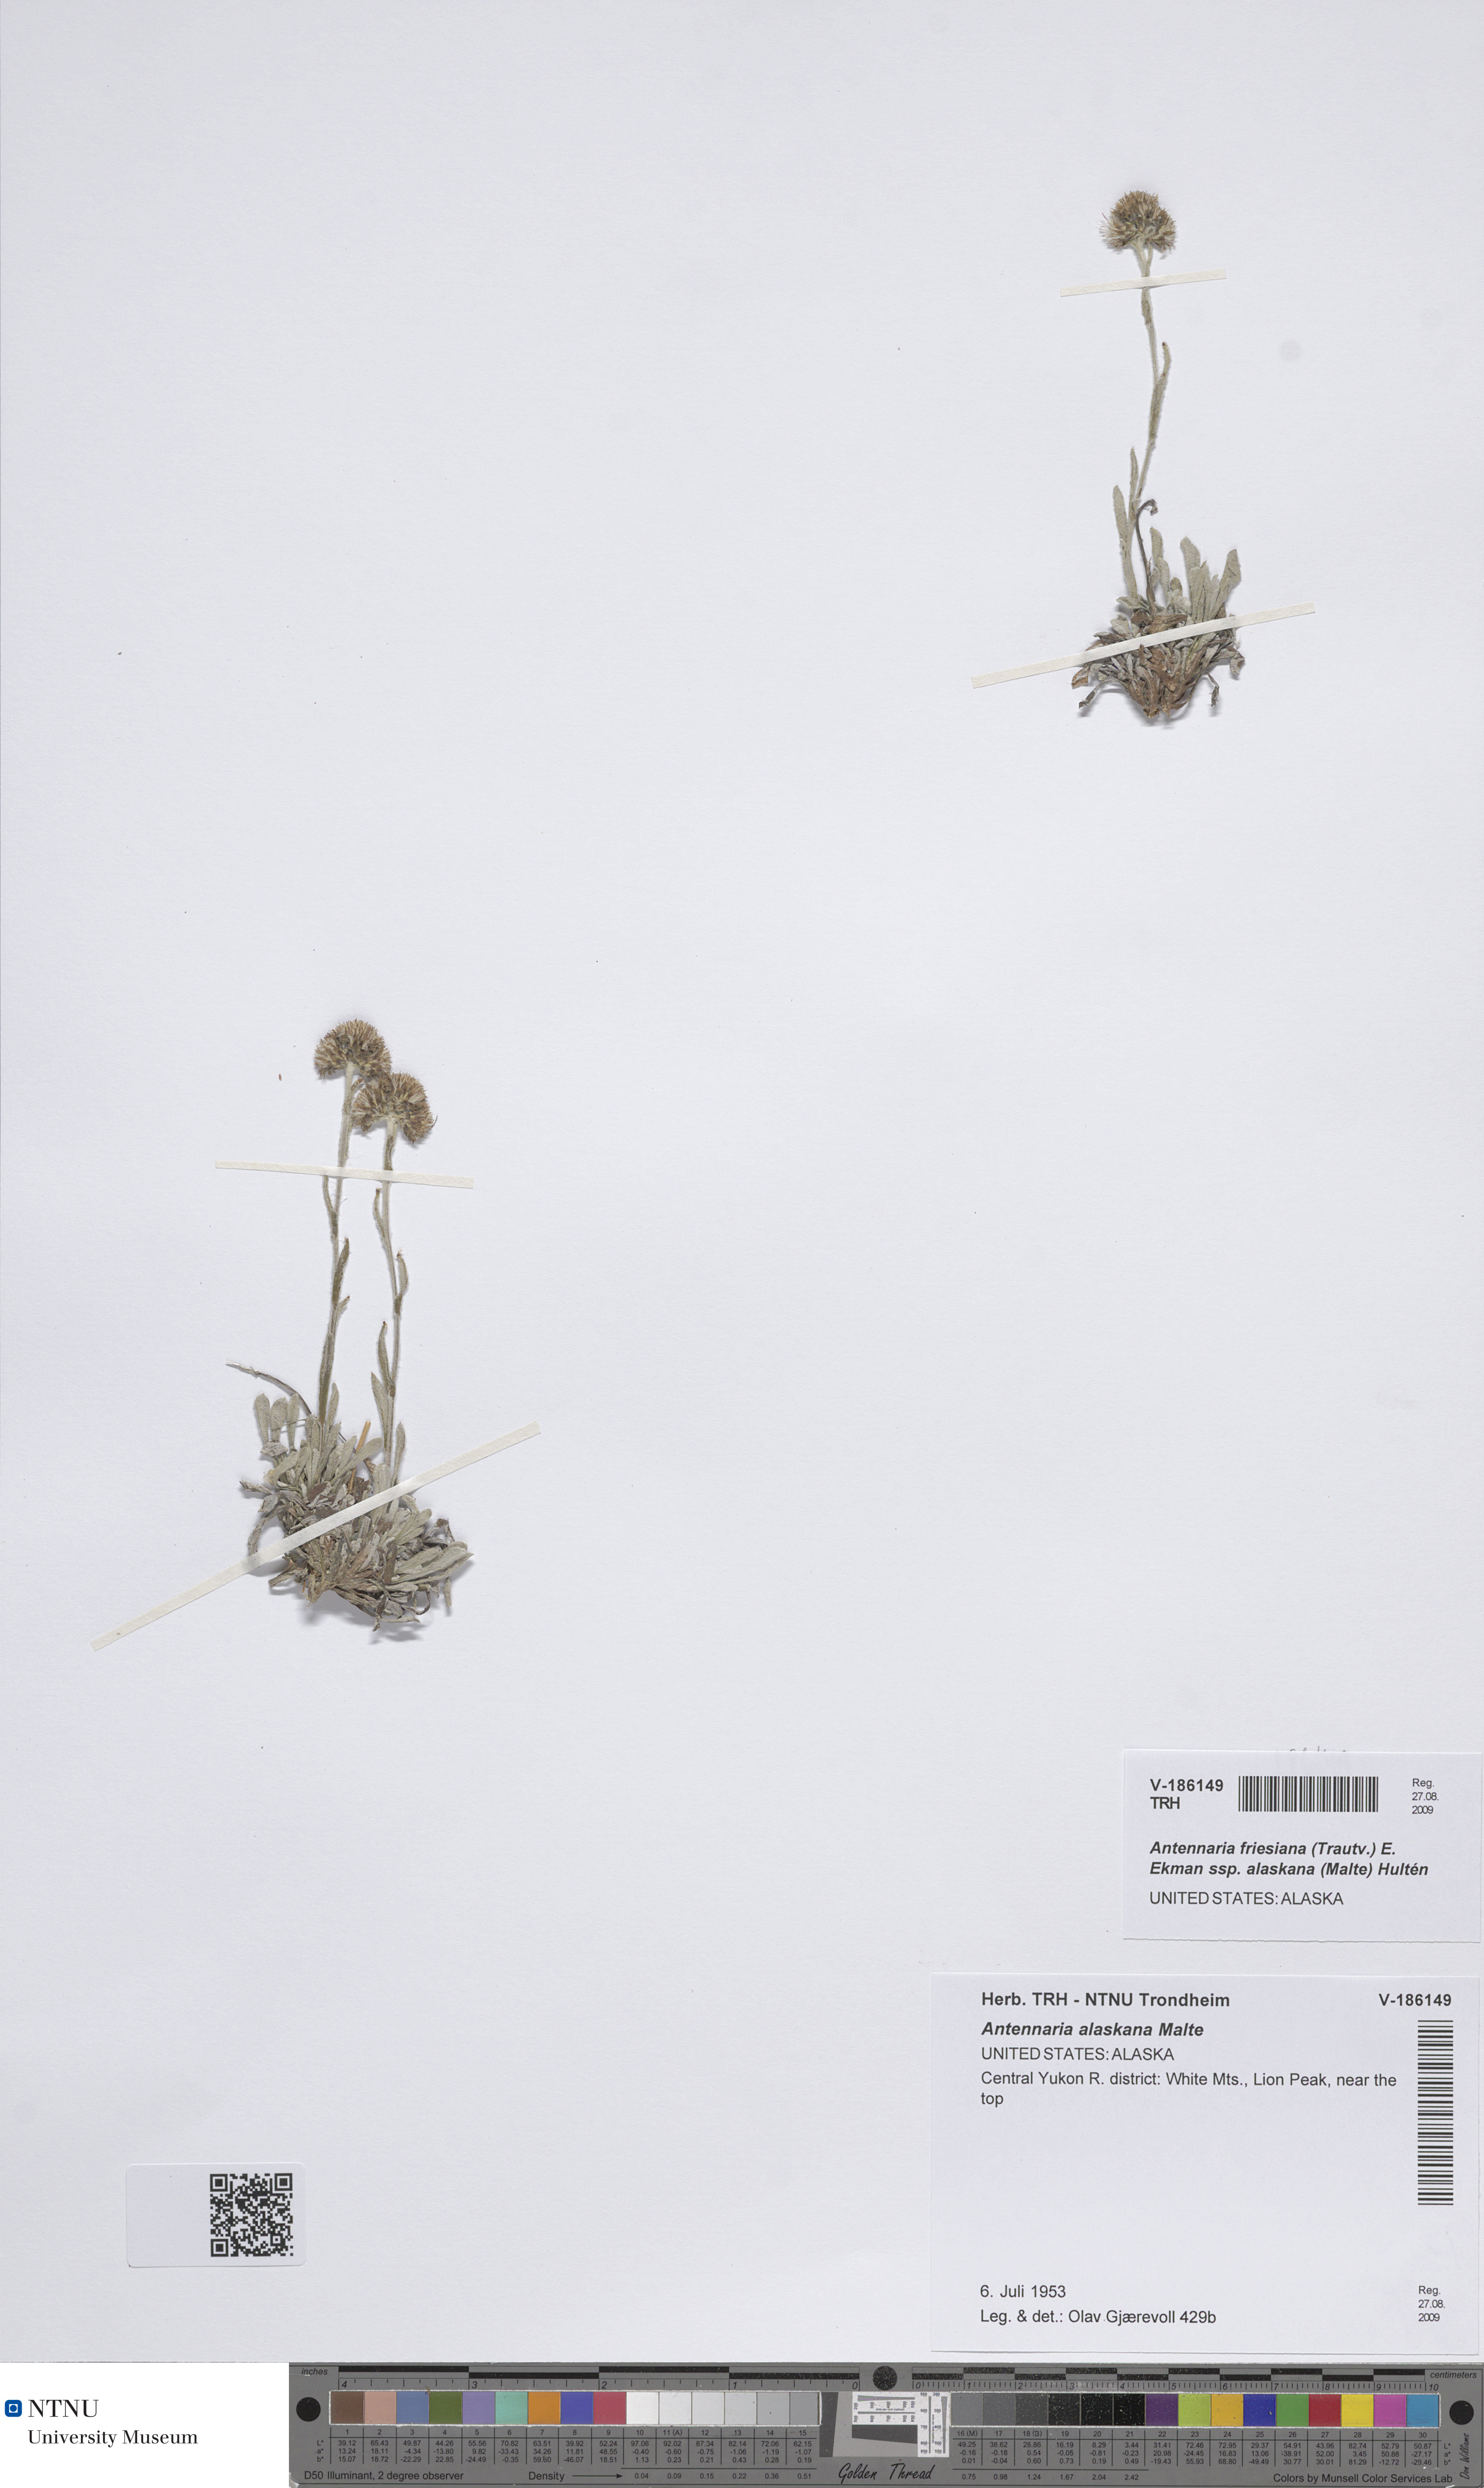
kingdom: Plantae
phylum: Tracheophyta
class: Magnoliopsida
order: Asterales
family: Asteraceae
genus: Antennaria
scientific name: Antennaria friesiana
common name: Fries' pussytoes
